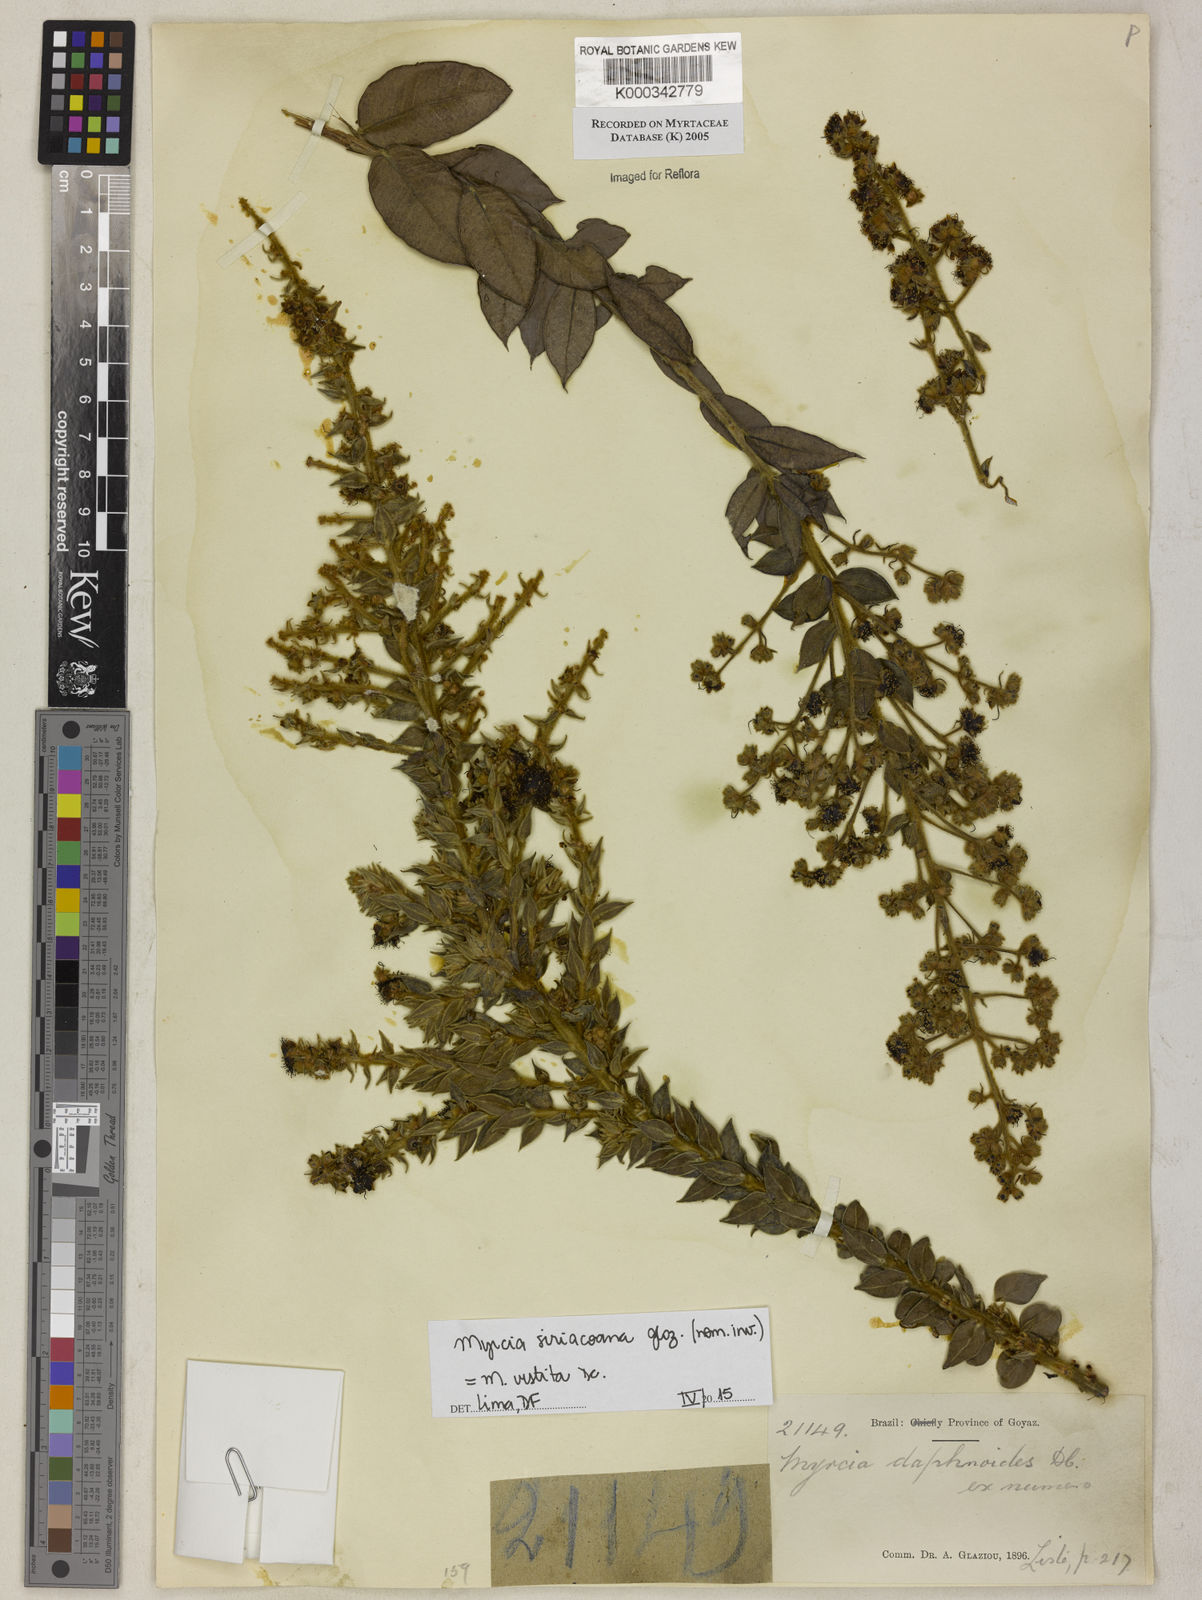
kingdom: Plantae
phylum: Tracheophyta
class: Magnoliopsida
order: Myrtales
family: Myrtaceae
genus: Myrcia
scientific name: Myrcia guianensis
